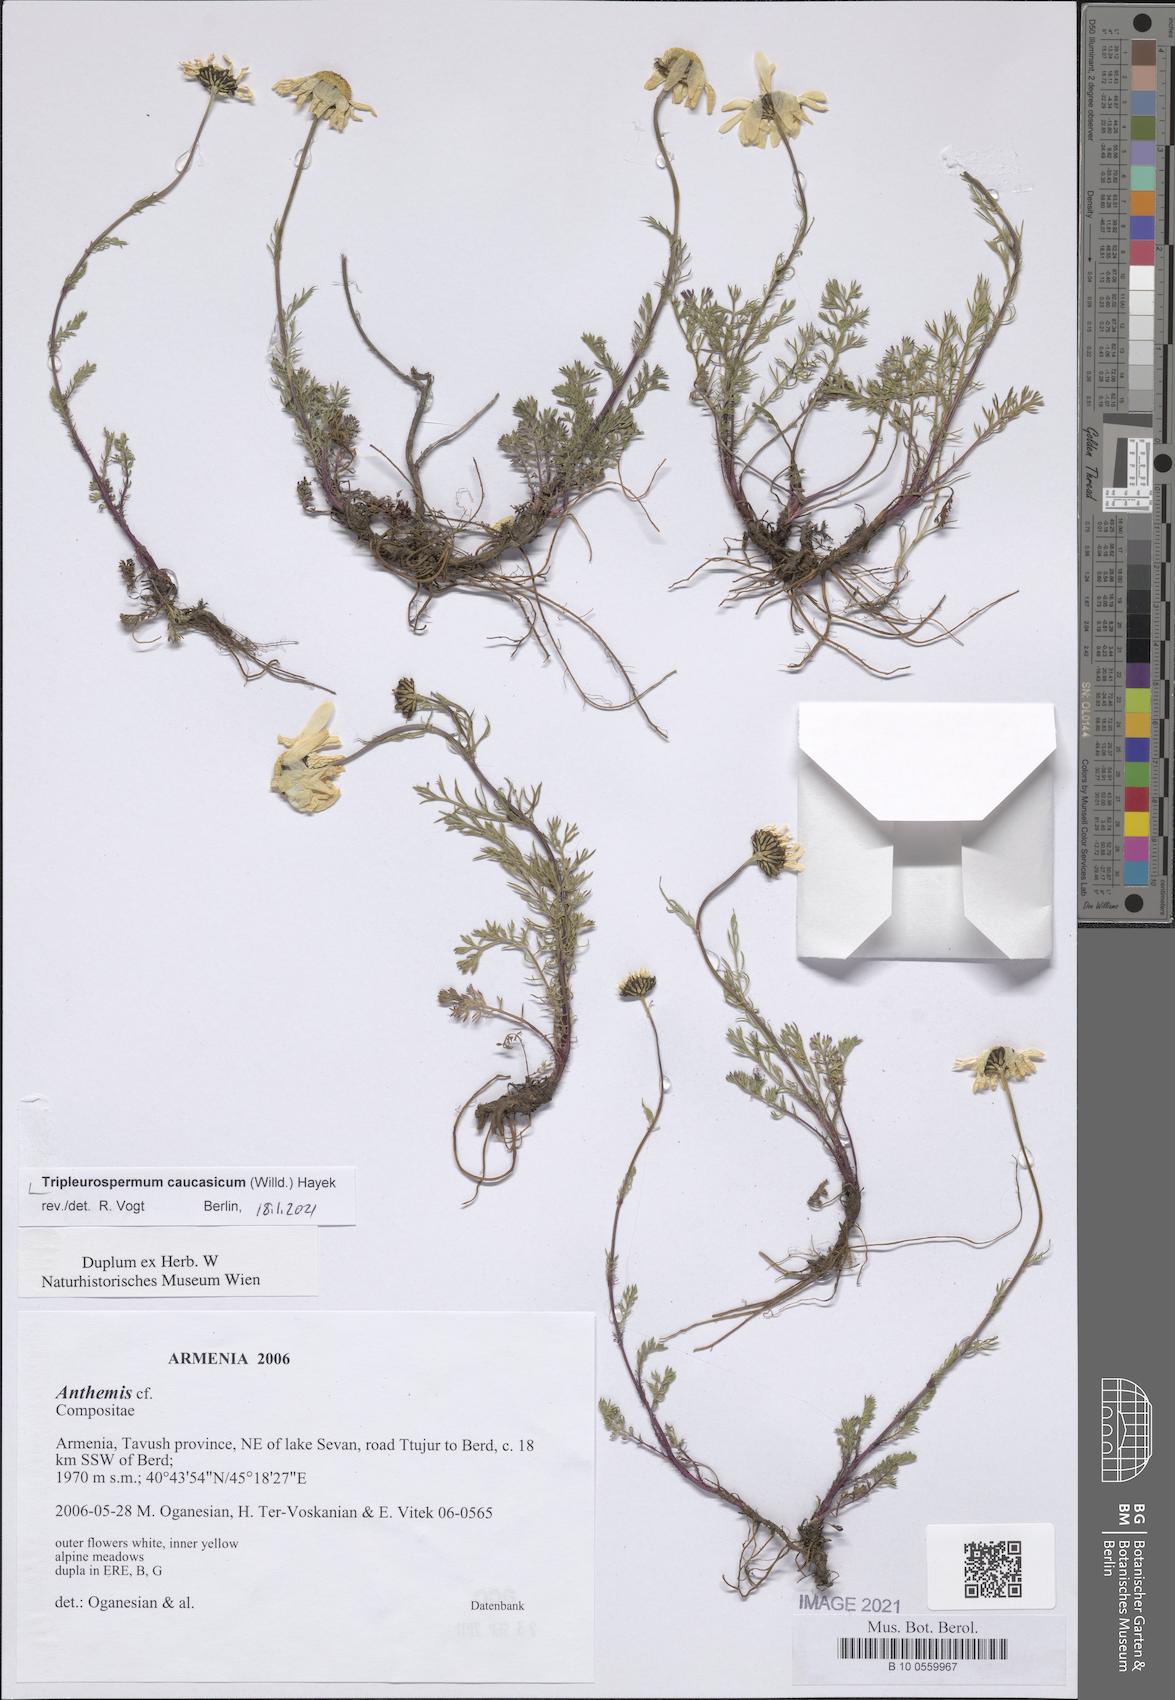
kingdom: Plantae
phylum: Tracheophyta
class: Magnoliopsida
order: Asterales
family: Asteraceae
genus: Tripleurospermum
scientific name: Tripleurospermum caucasicum
